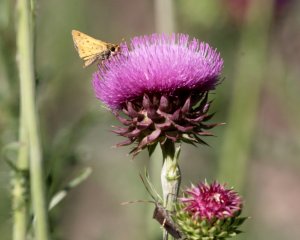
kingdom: Animalia
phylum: Arthropoda
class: Insecta
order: Lepidoptera
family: Hesperiidae
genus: Hylephila
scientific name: Hylephila phyleus
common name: Fiery Skipper
